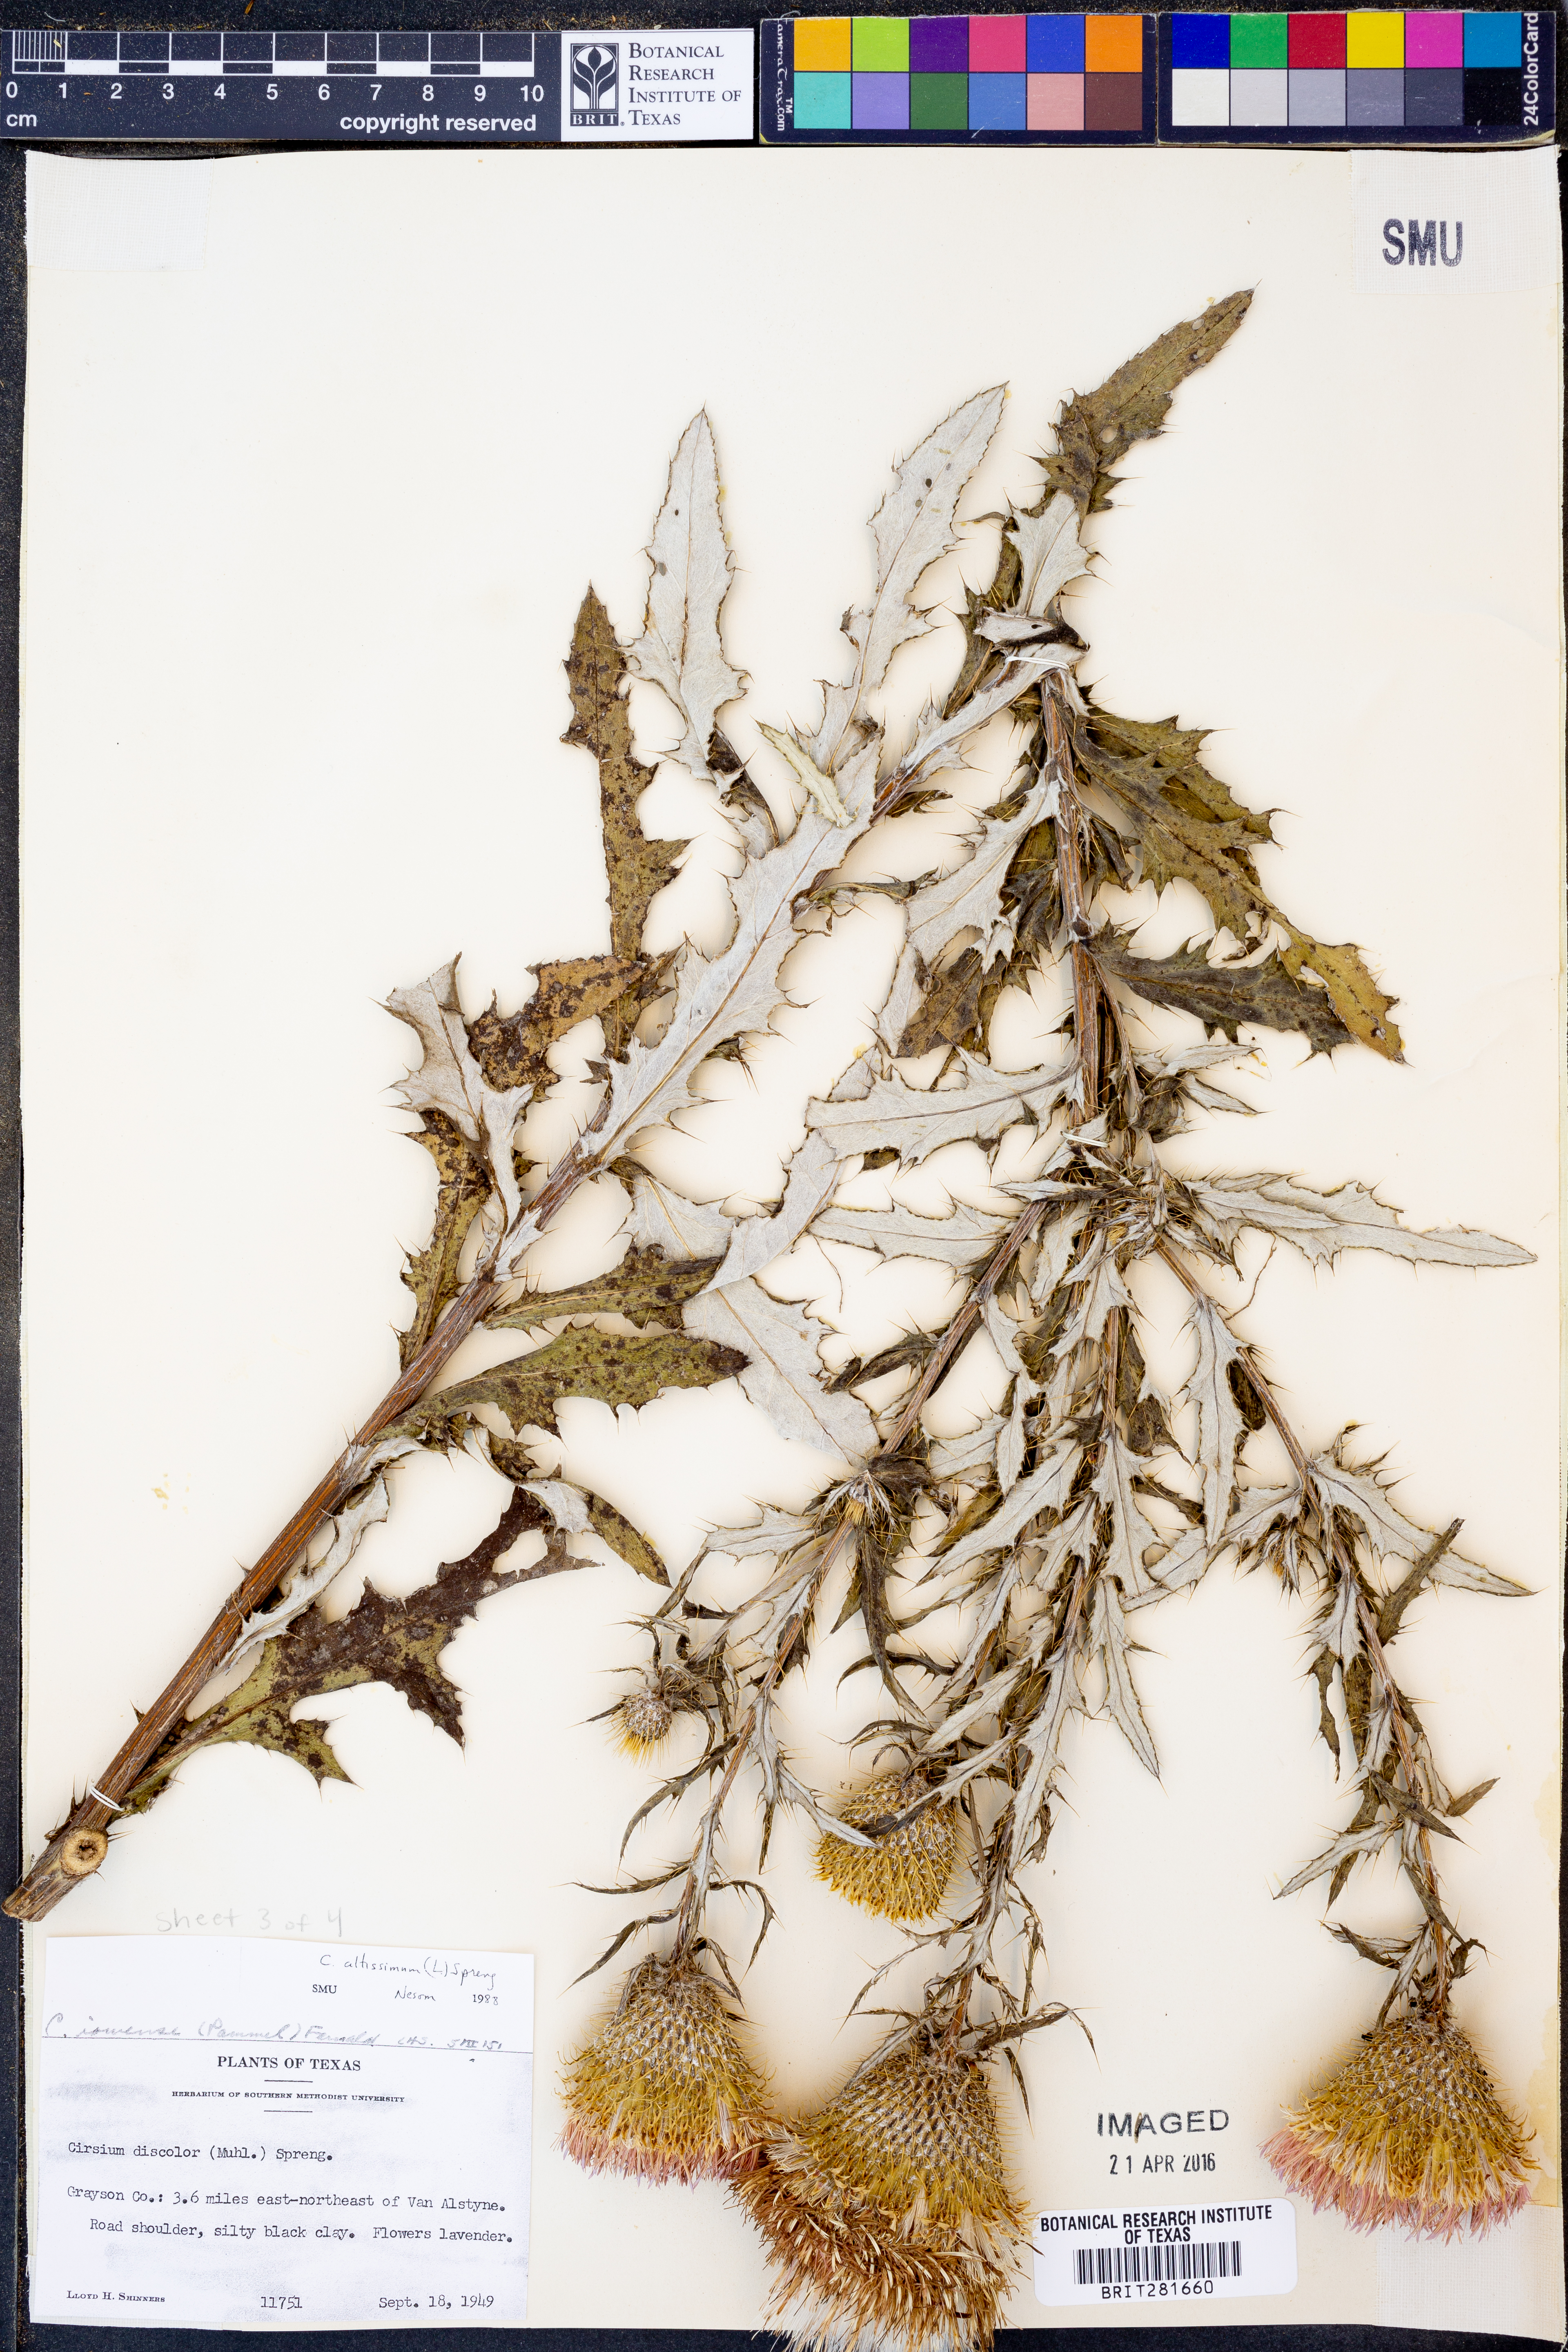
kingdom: Plantae
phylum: Tracheophyta
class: Magnoliopsida
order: Asterales
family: Asteraceae
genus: Cirsium
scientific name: Cirsium altissimum
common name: Roadside thistle
